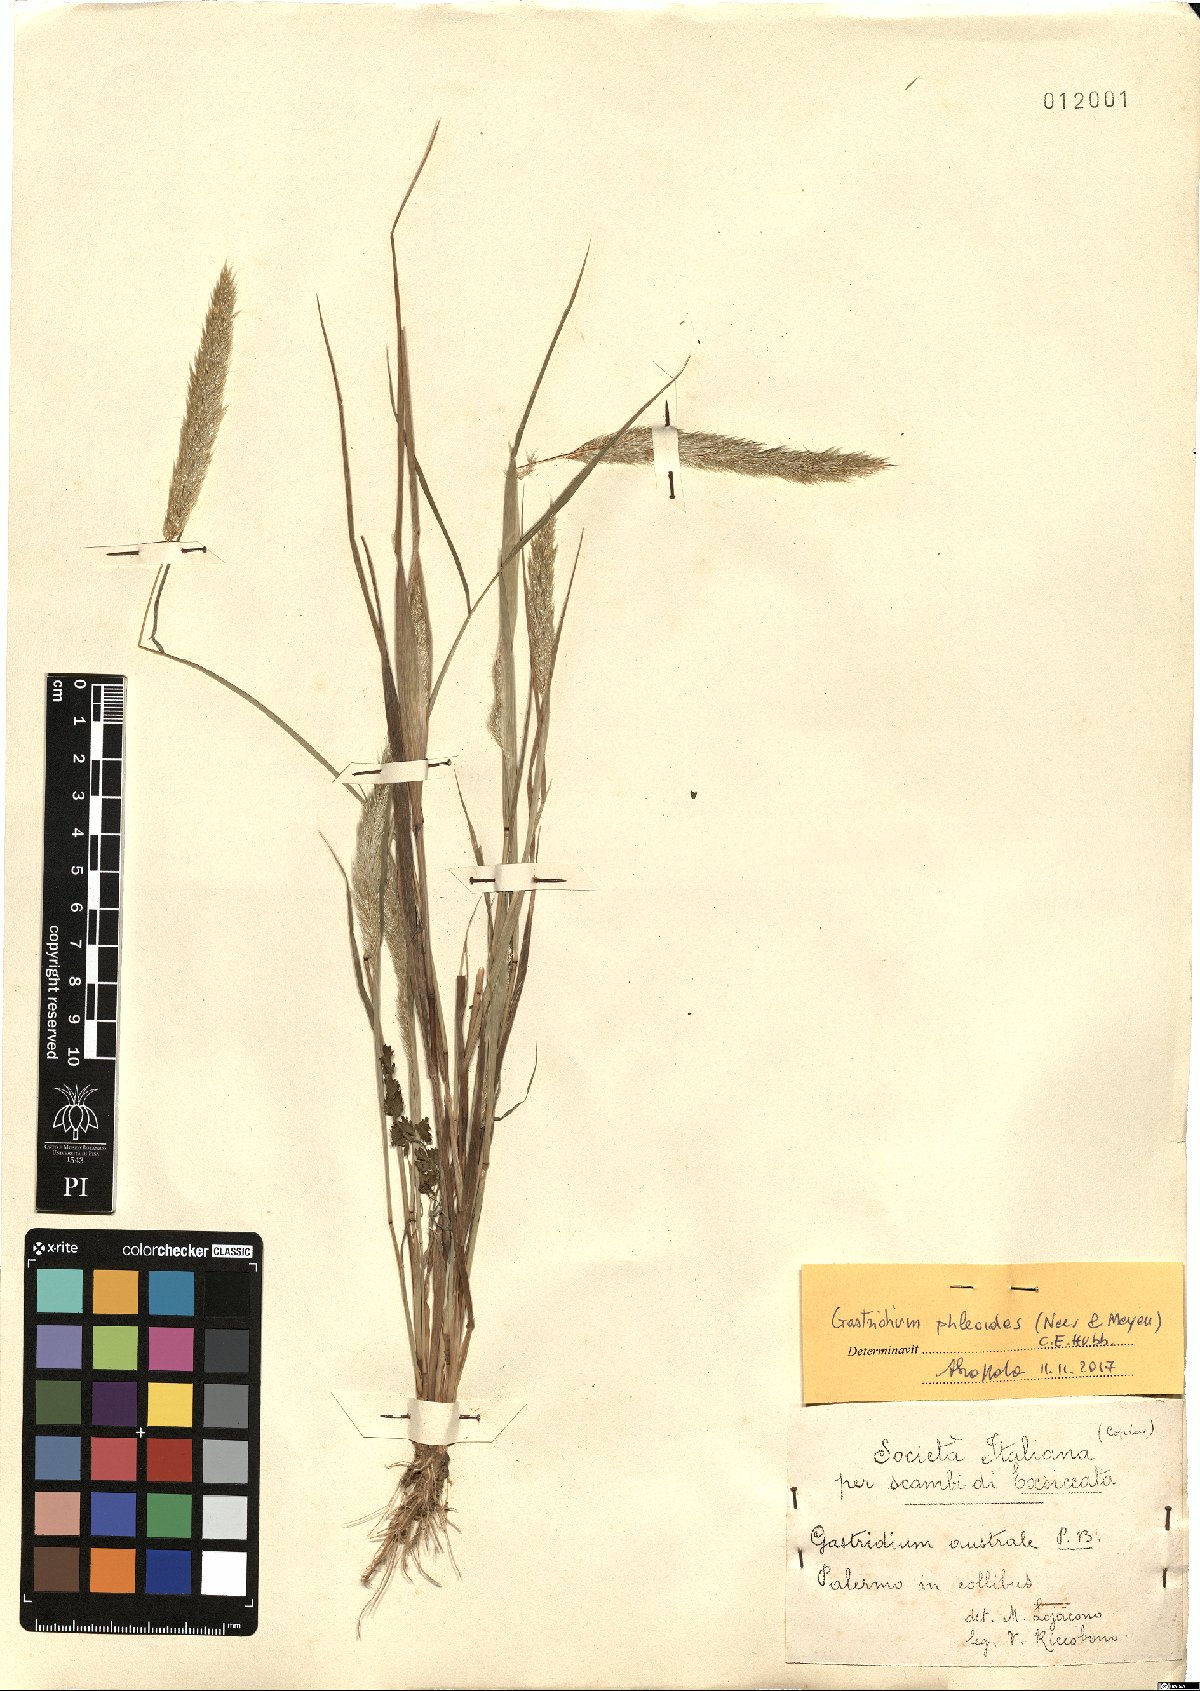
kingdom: Plantae
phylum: Tracheophyta
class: Liliopsida
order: Poales
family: Poaceae
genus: Gastridium
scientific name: Gastridium phleoides
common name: Nit grass
